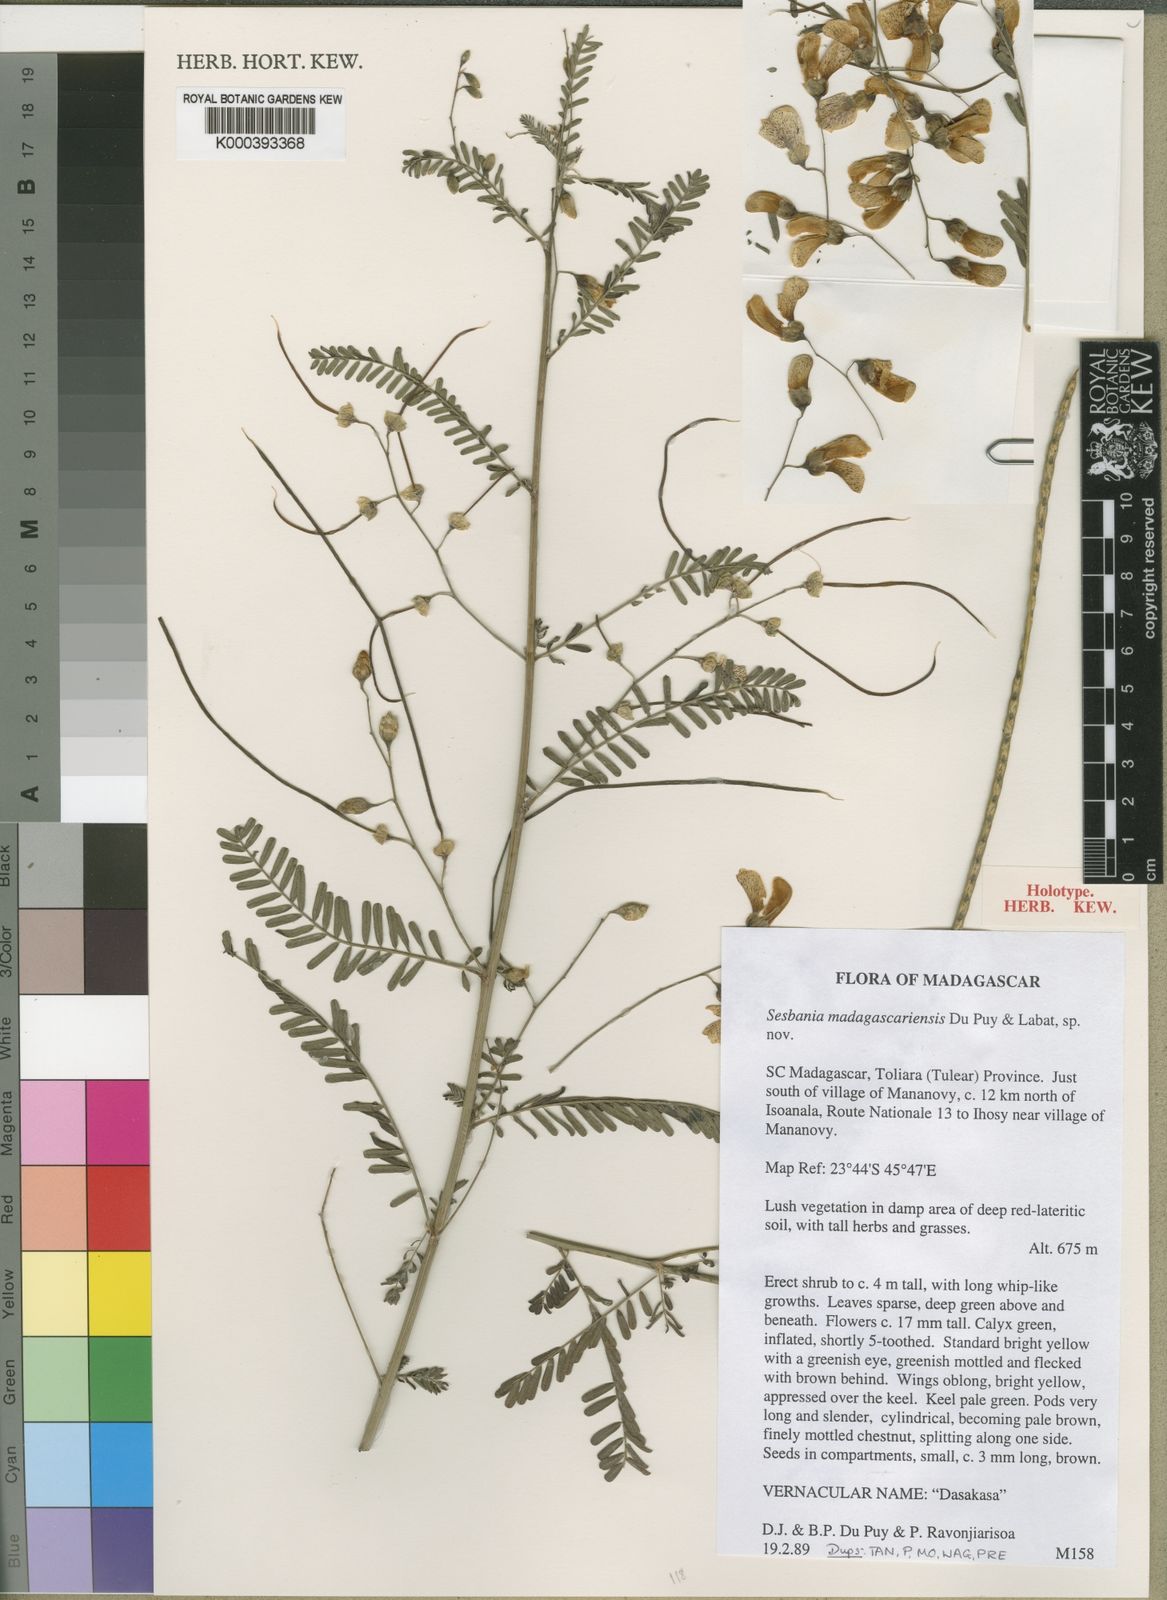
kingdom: Plantae
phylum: Tracheophyta
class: Magnoliopsida
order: Fabales
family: Fabaceae
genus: Sesbania
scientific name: Sesbania madagascariensis
